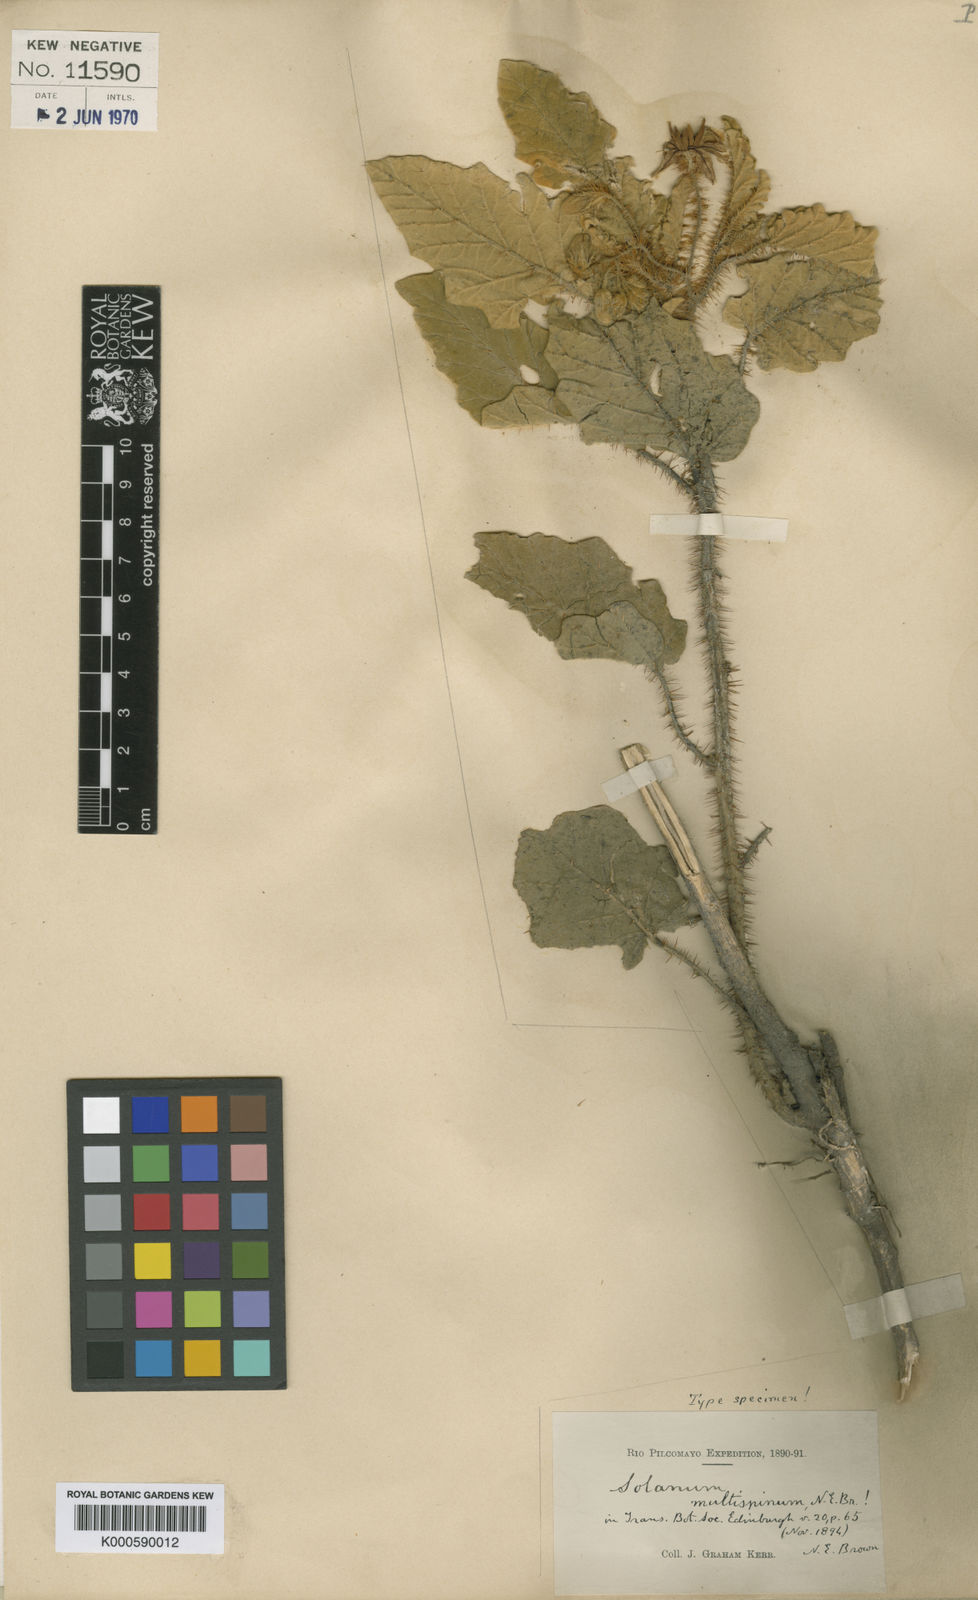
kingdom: Plantae
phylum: Tracheophyta
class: Magnoliopsida
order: Solanales
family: Solanaceae
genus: Solanum
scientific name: Solanum multispinum
